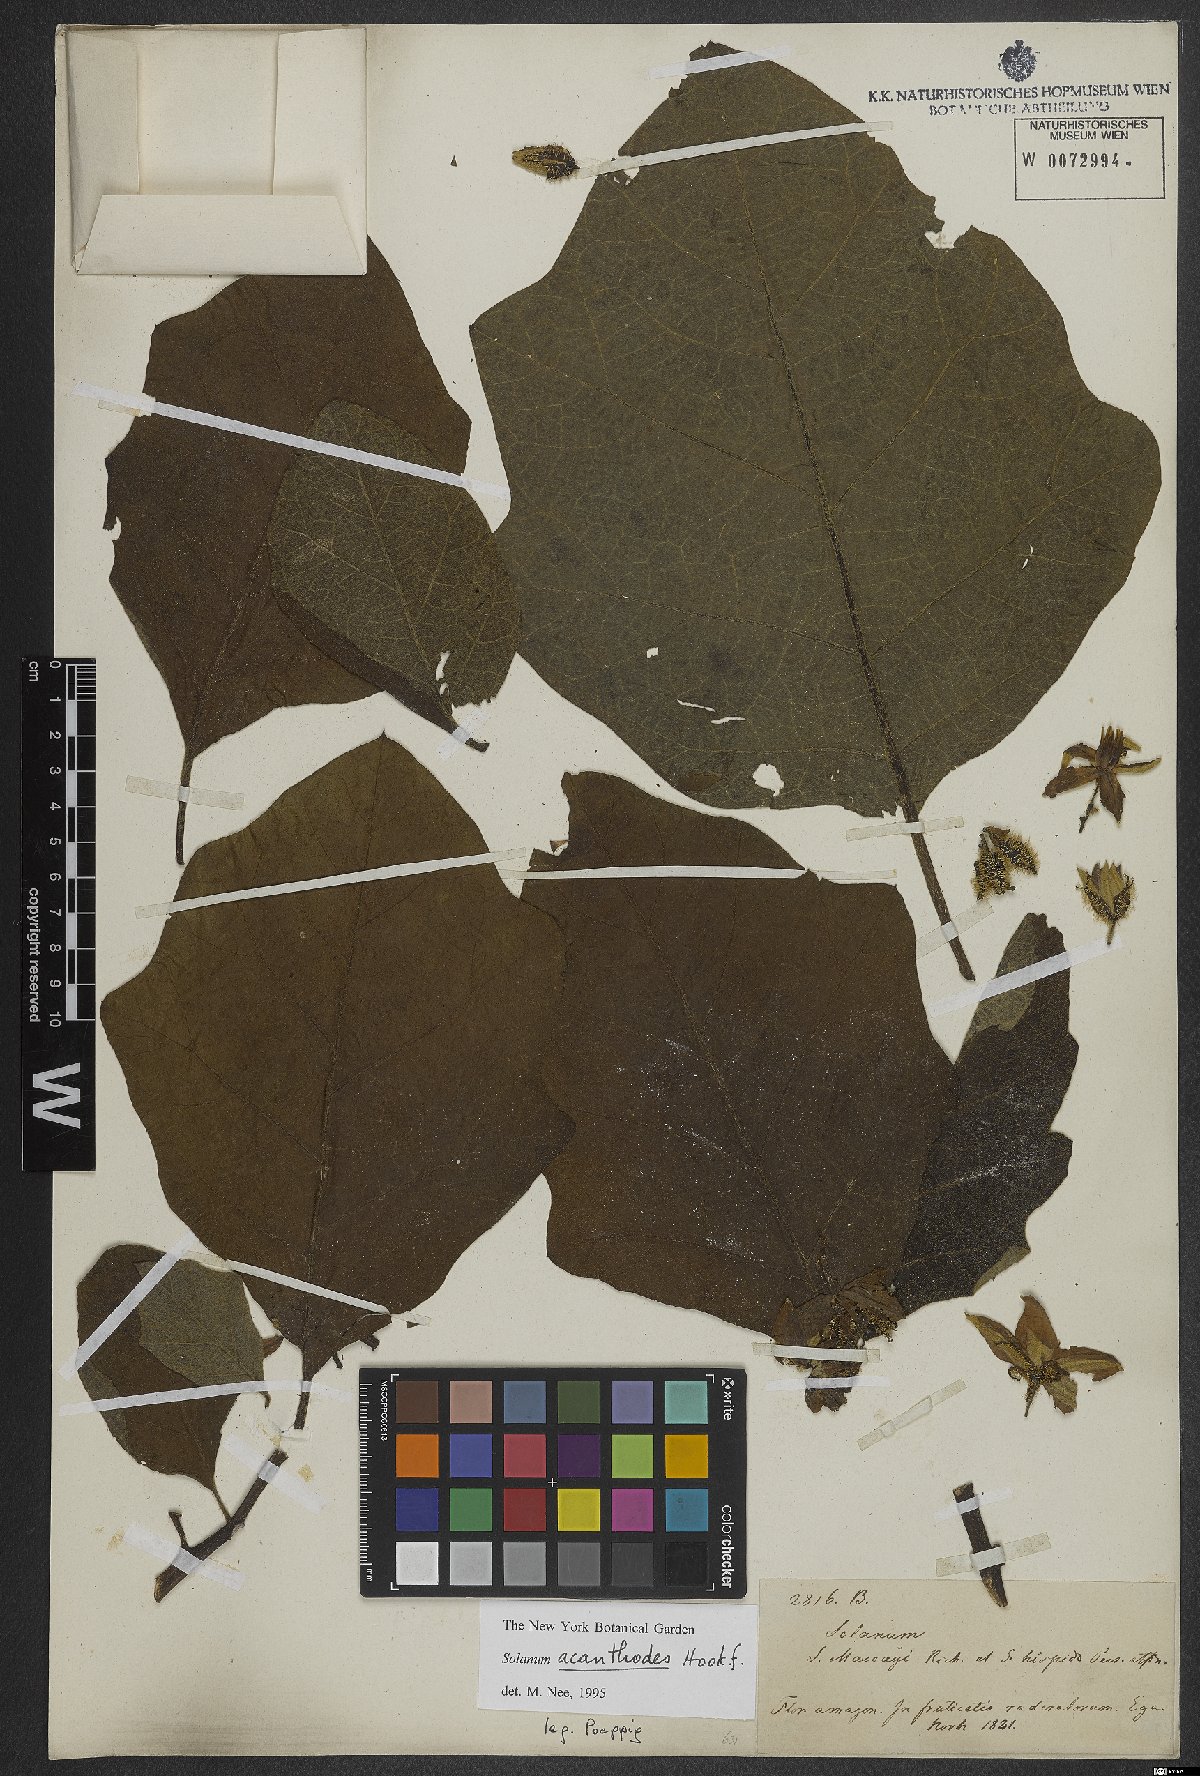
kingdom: Plantae
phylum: Tracheophyta
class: Magnoliopsida
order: Solanales
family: Solanaceae
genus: Solanum
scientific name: Solanum vanheurckii
